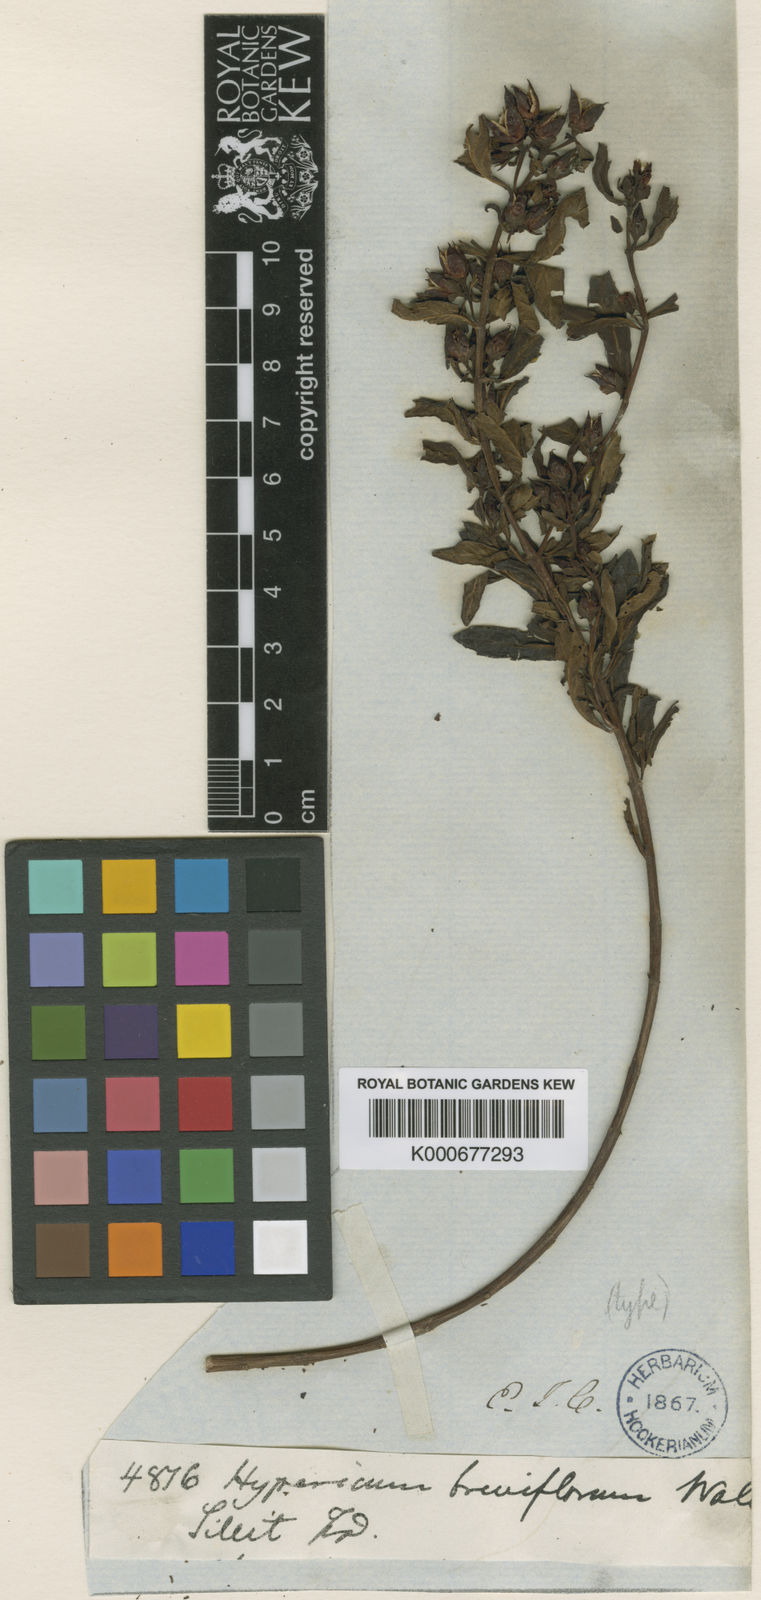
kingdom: Plantae
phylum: Tracheophyta
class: Magnoliopsida
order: Malpighiales
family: Hypericaceae
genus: Triadenum
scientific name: Triadenum breviflorum
